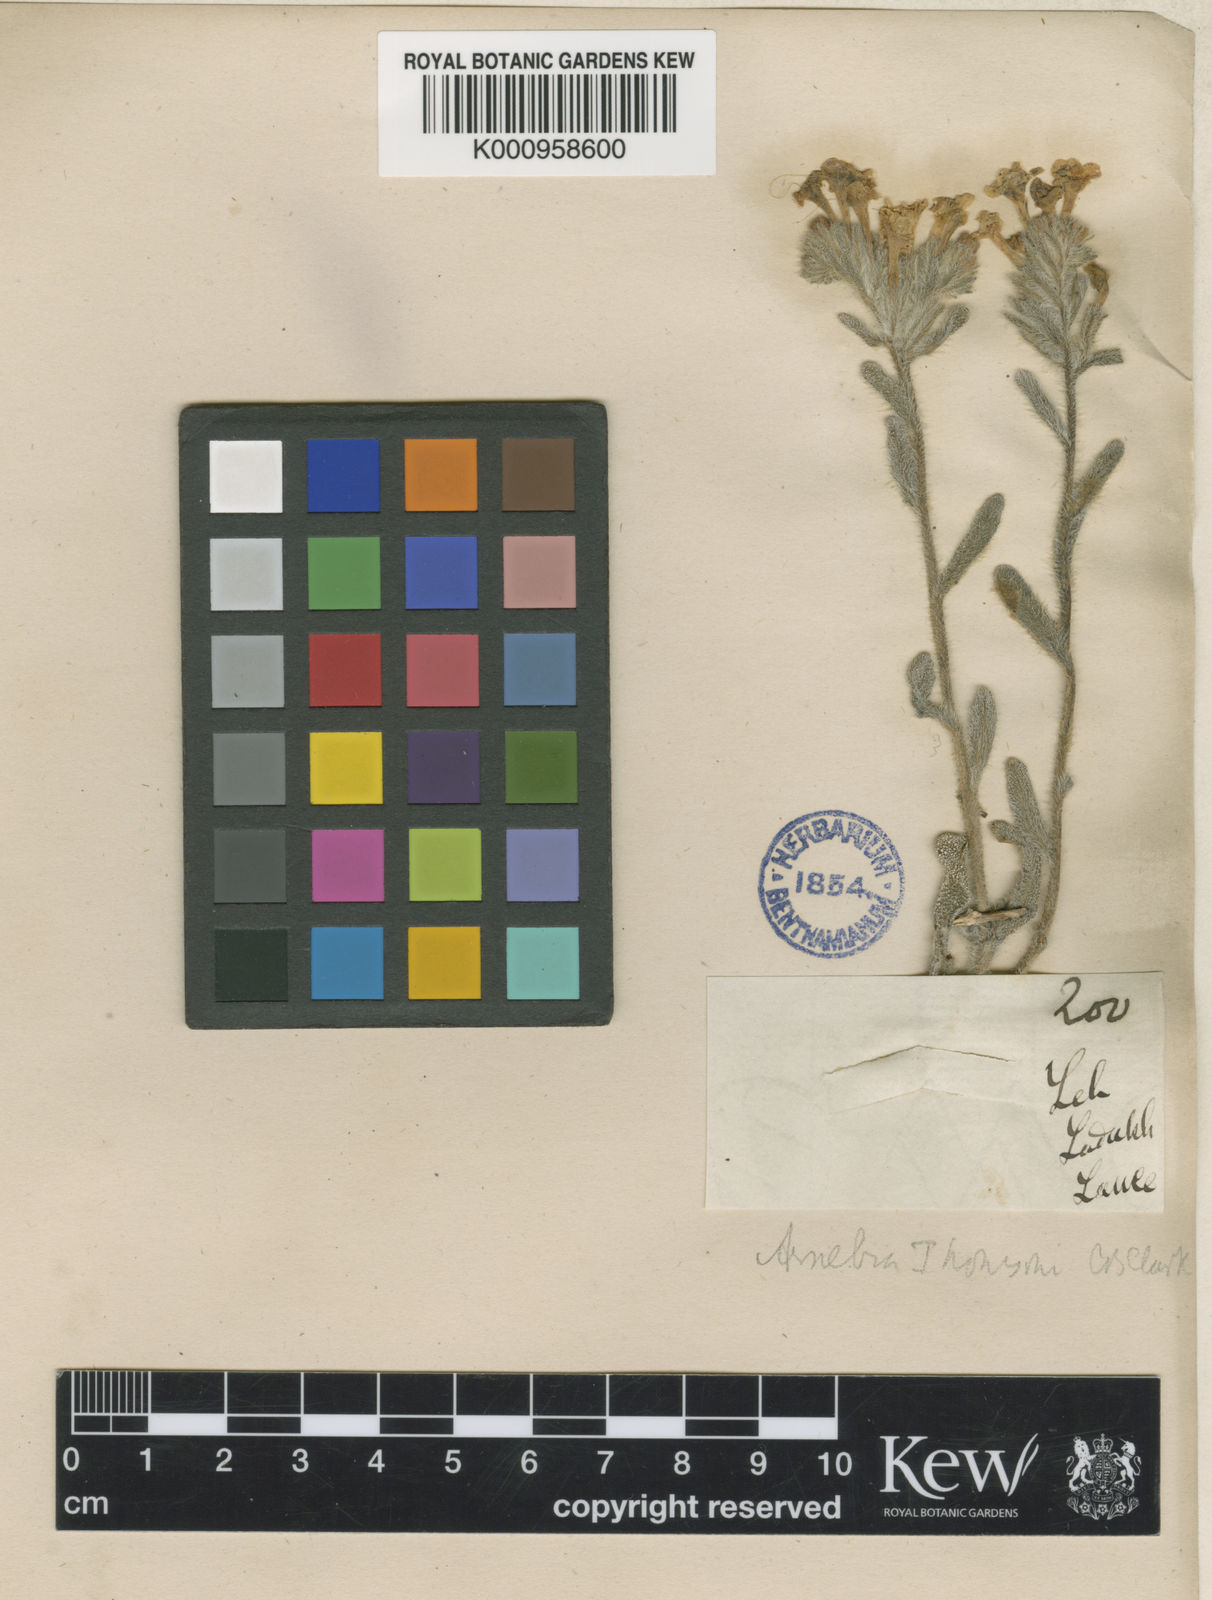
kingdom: Plantae
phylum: Tracheophyta
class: Magnoliopsida
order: Boraginales
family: Boraginaceae
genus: Arnebia
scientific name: Arnebia guttata
